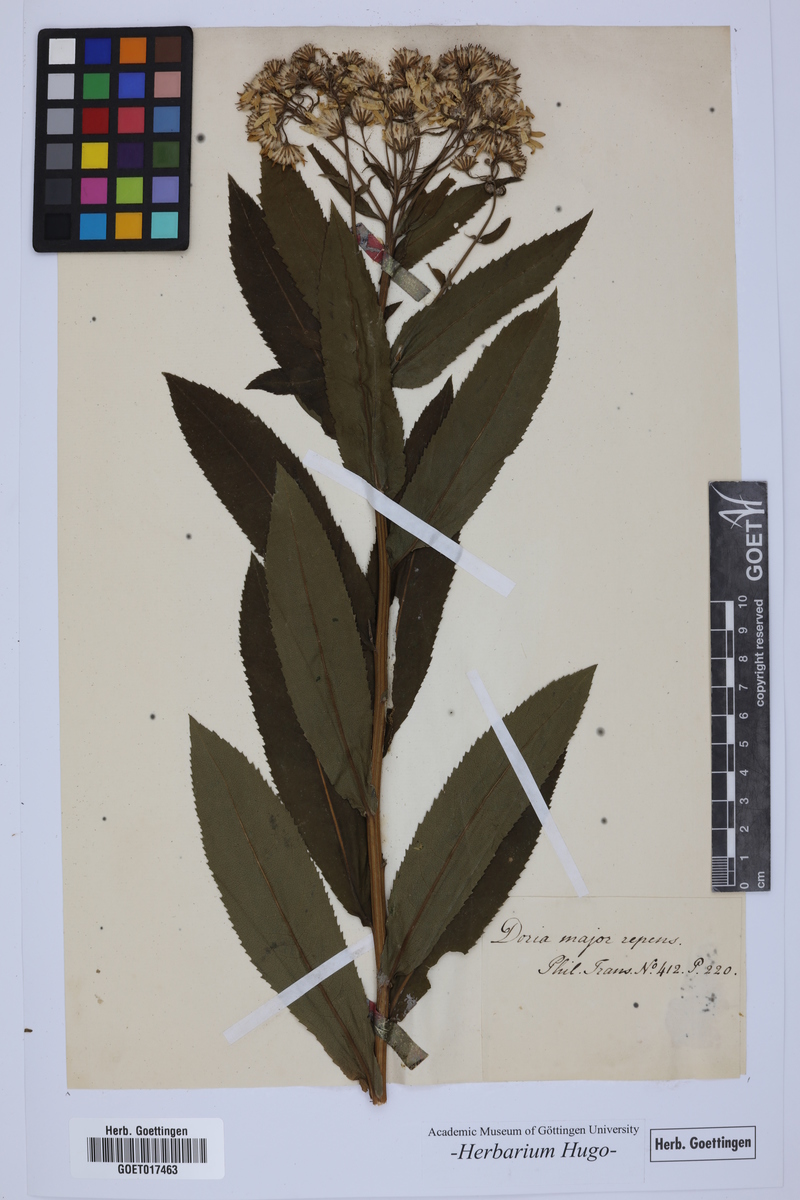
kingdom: Plantae
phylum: Tracheophyta
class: Magnoliopsida
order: Asterales
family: Asteraceae
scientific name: Asteraceae
